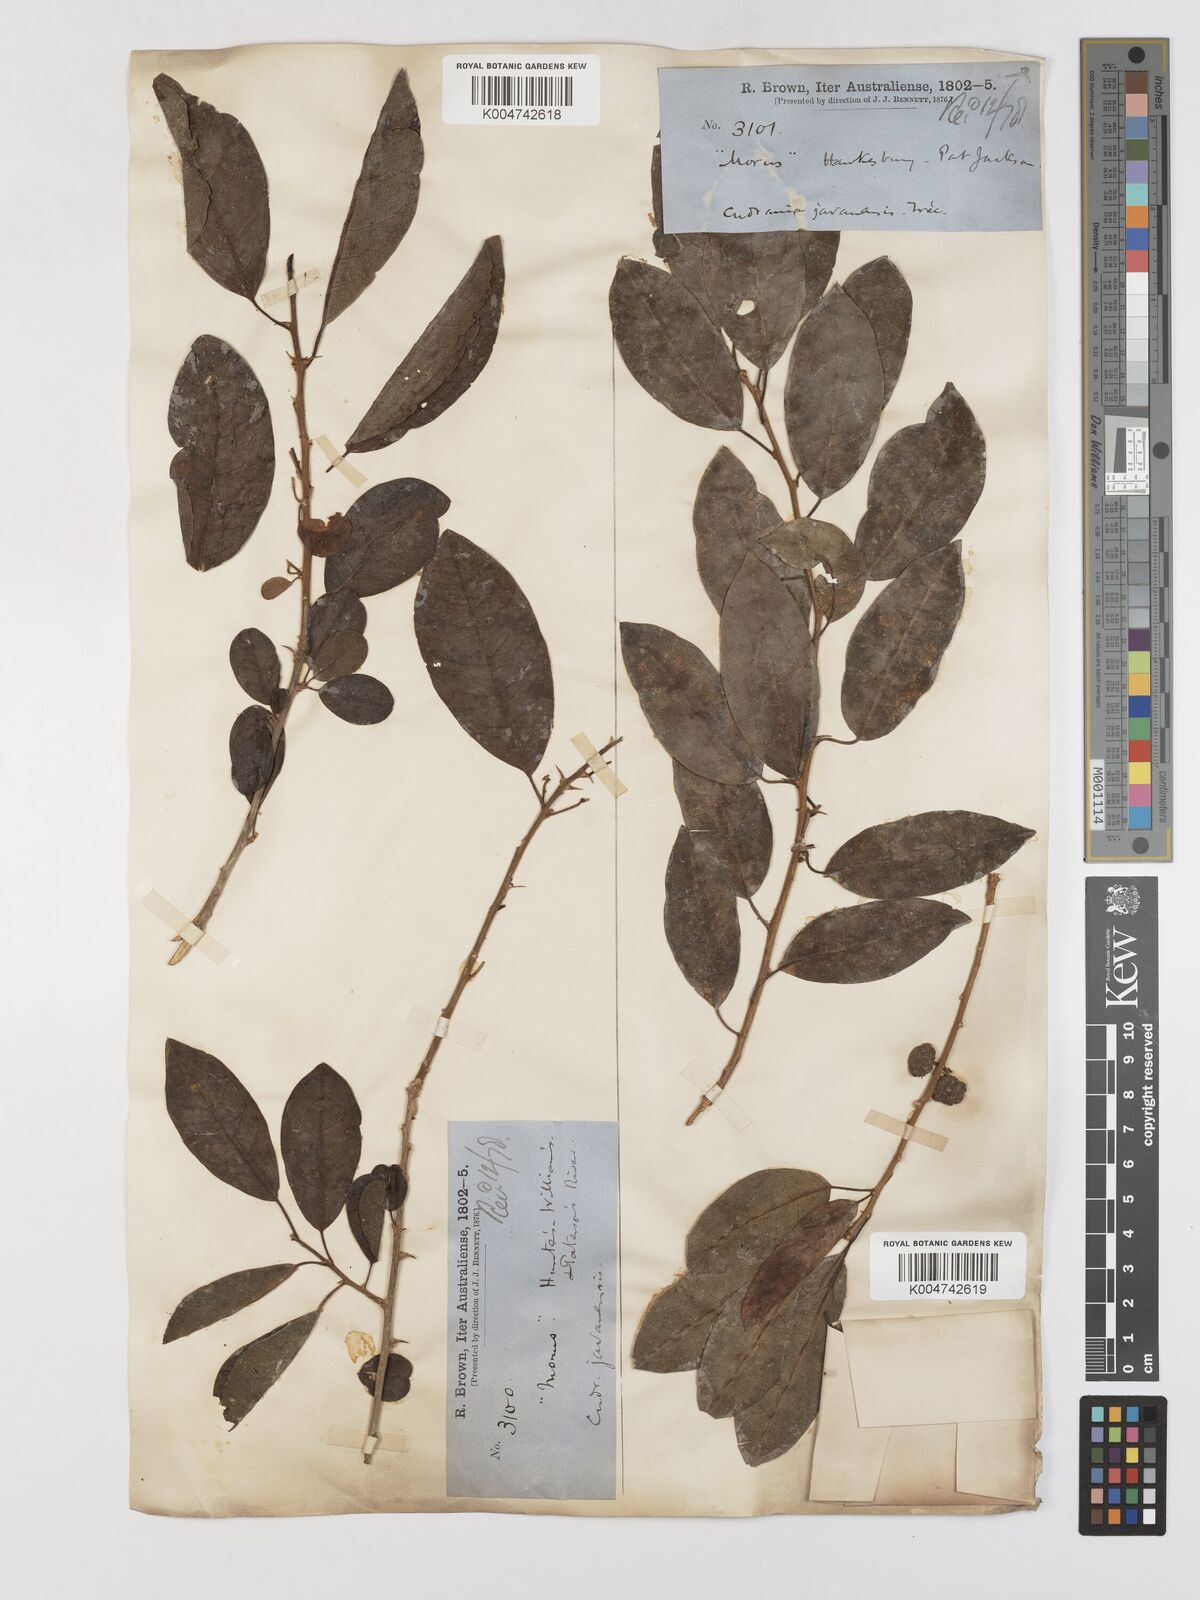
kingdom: Plantae
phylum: Tracheophyta
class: Magnoliopsida
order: Rosales
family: Moraceae
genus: Maclura
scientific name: Maclura cochinchinensis
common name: Cockspurthorn
